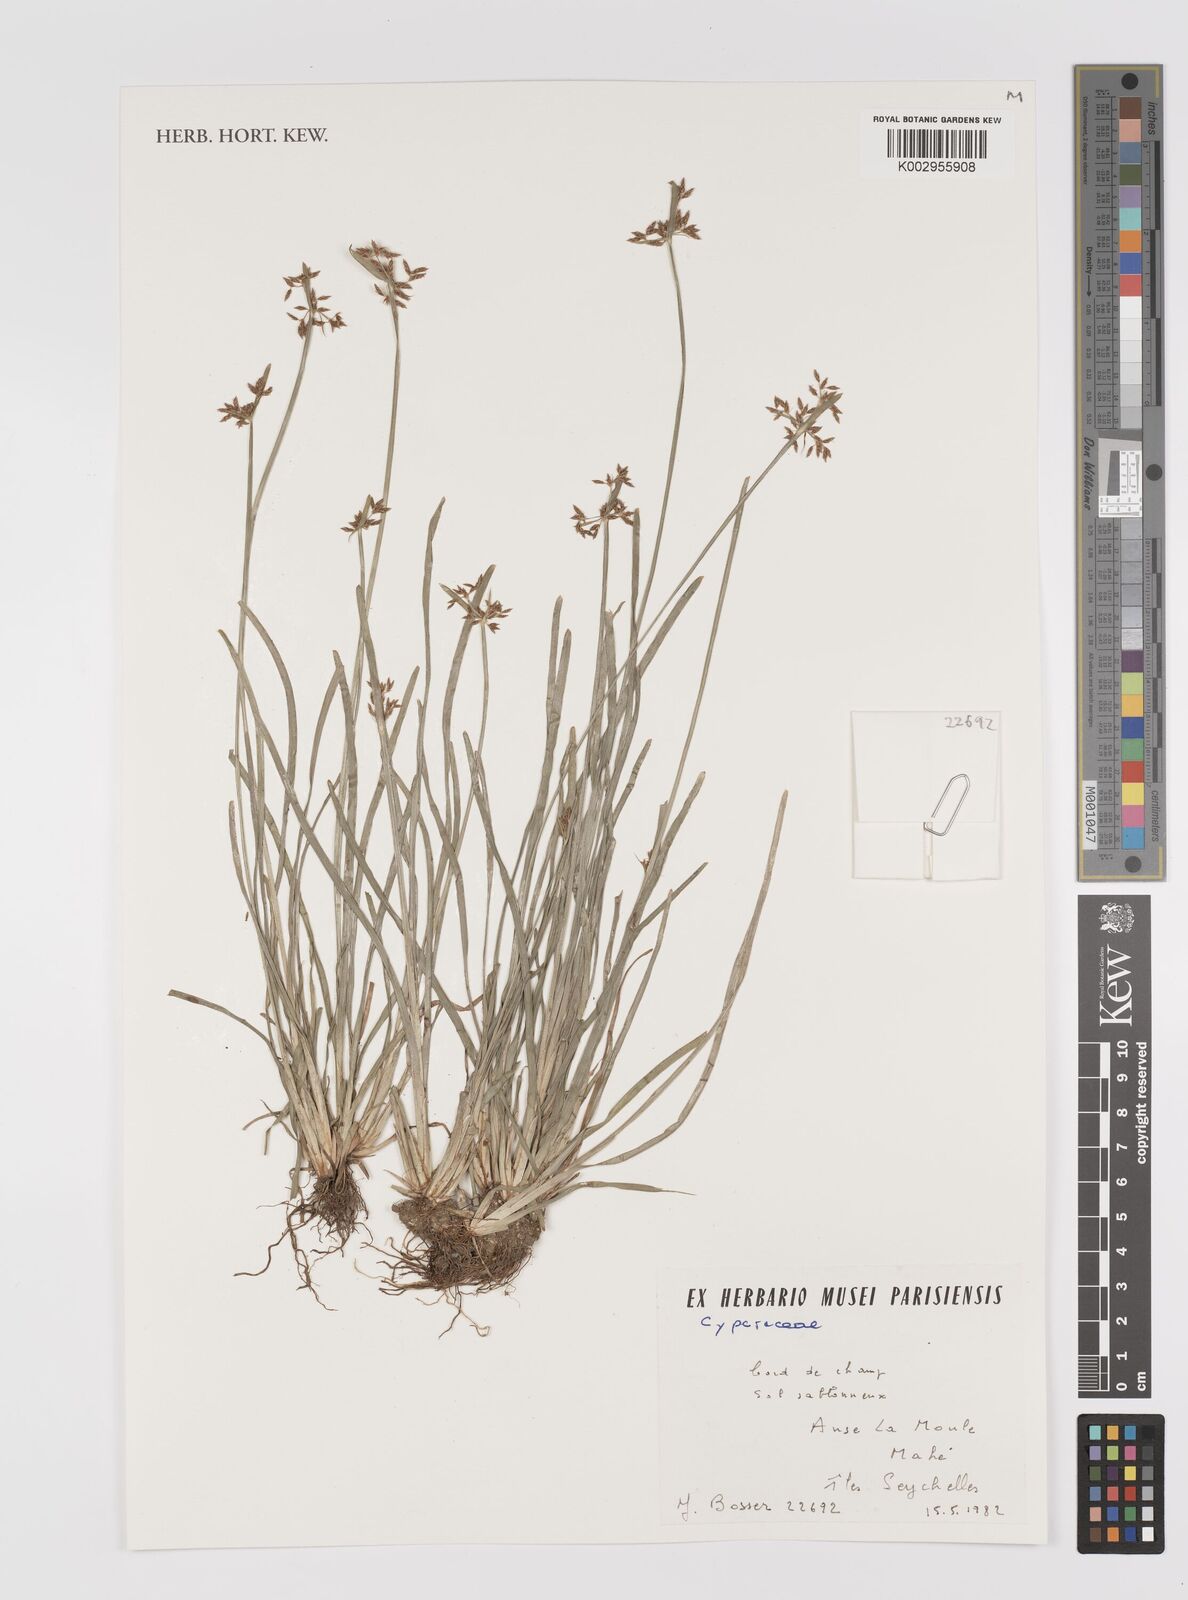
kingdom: Plantae
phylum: Tracheophyta
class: Liliopsida
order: Poales
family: Cyperaceae
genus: Cyperus
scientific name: Cyperus
